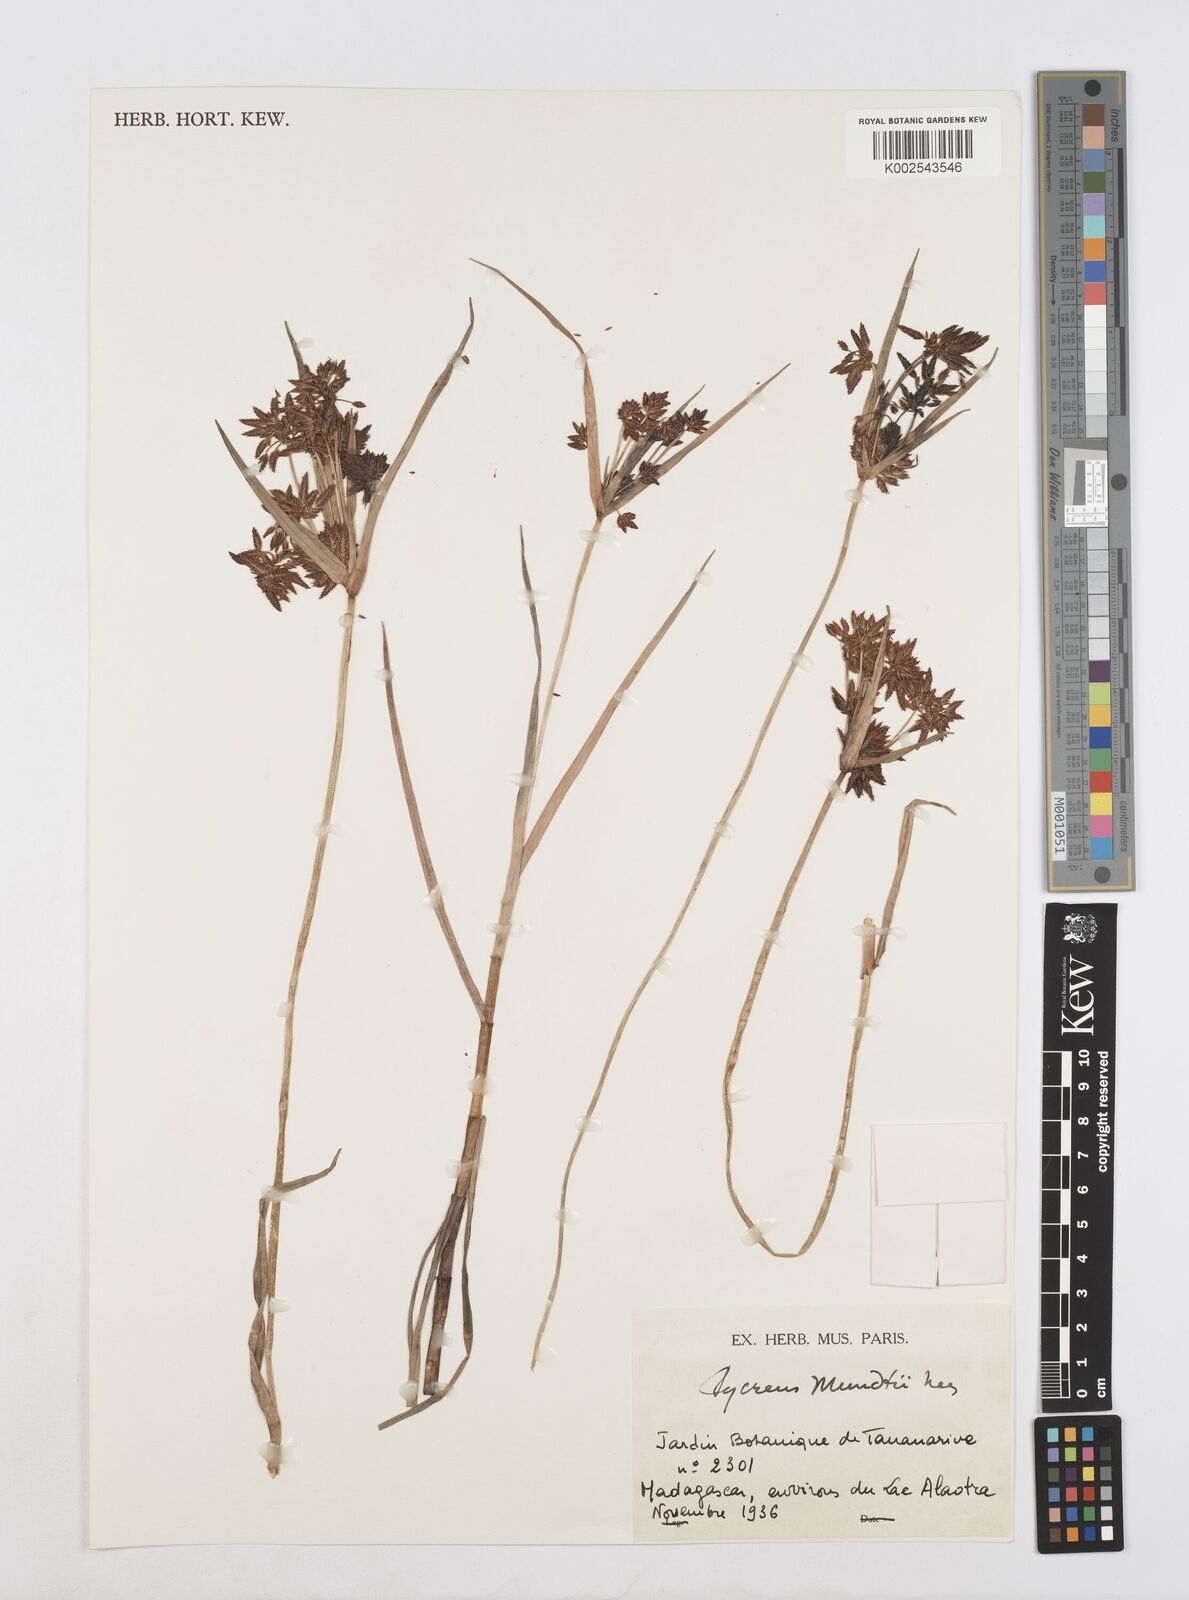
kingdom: Plantae
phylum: Tracheophyta
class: Liliopsida
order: Poales
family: Cyperaceae
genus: Cyperus
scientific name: Cyperus mundii
